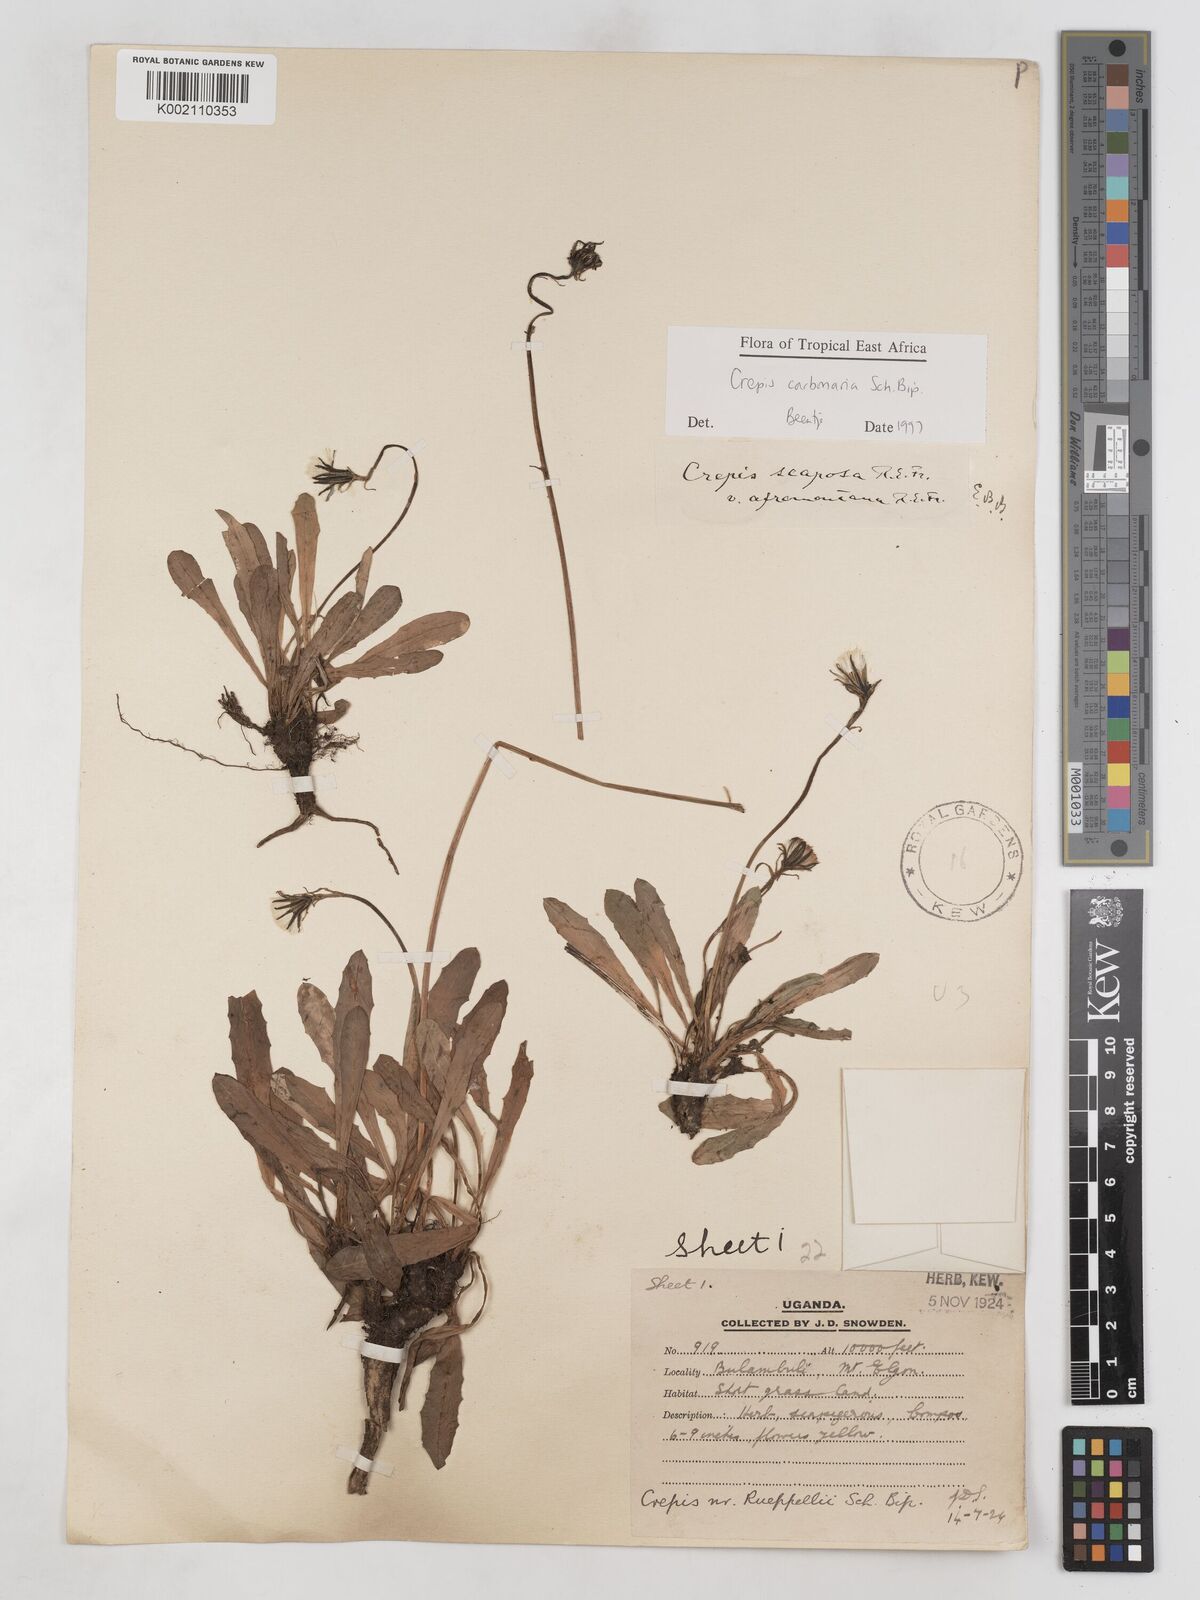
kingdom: Plantae
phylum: Tracheophyta
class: Magnoliopsida
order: Asterales
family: Asteraceae
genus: Crepis
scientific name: Crepis carbonaria
